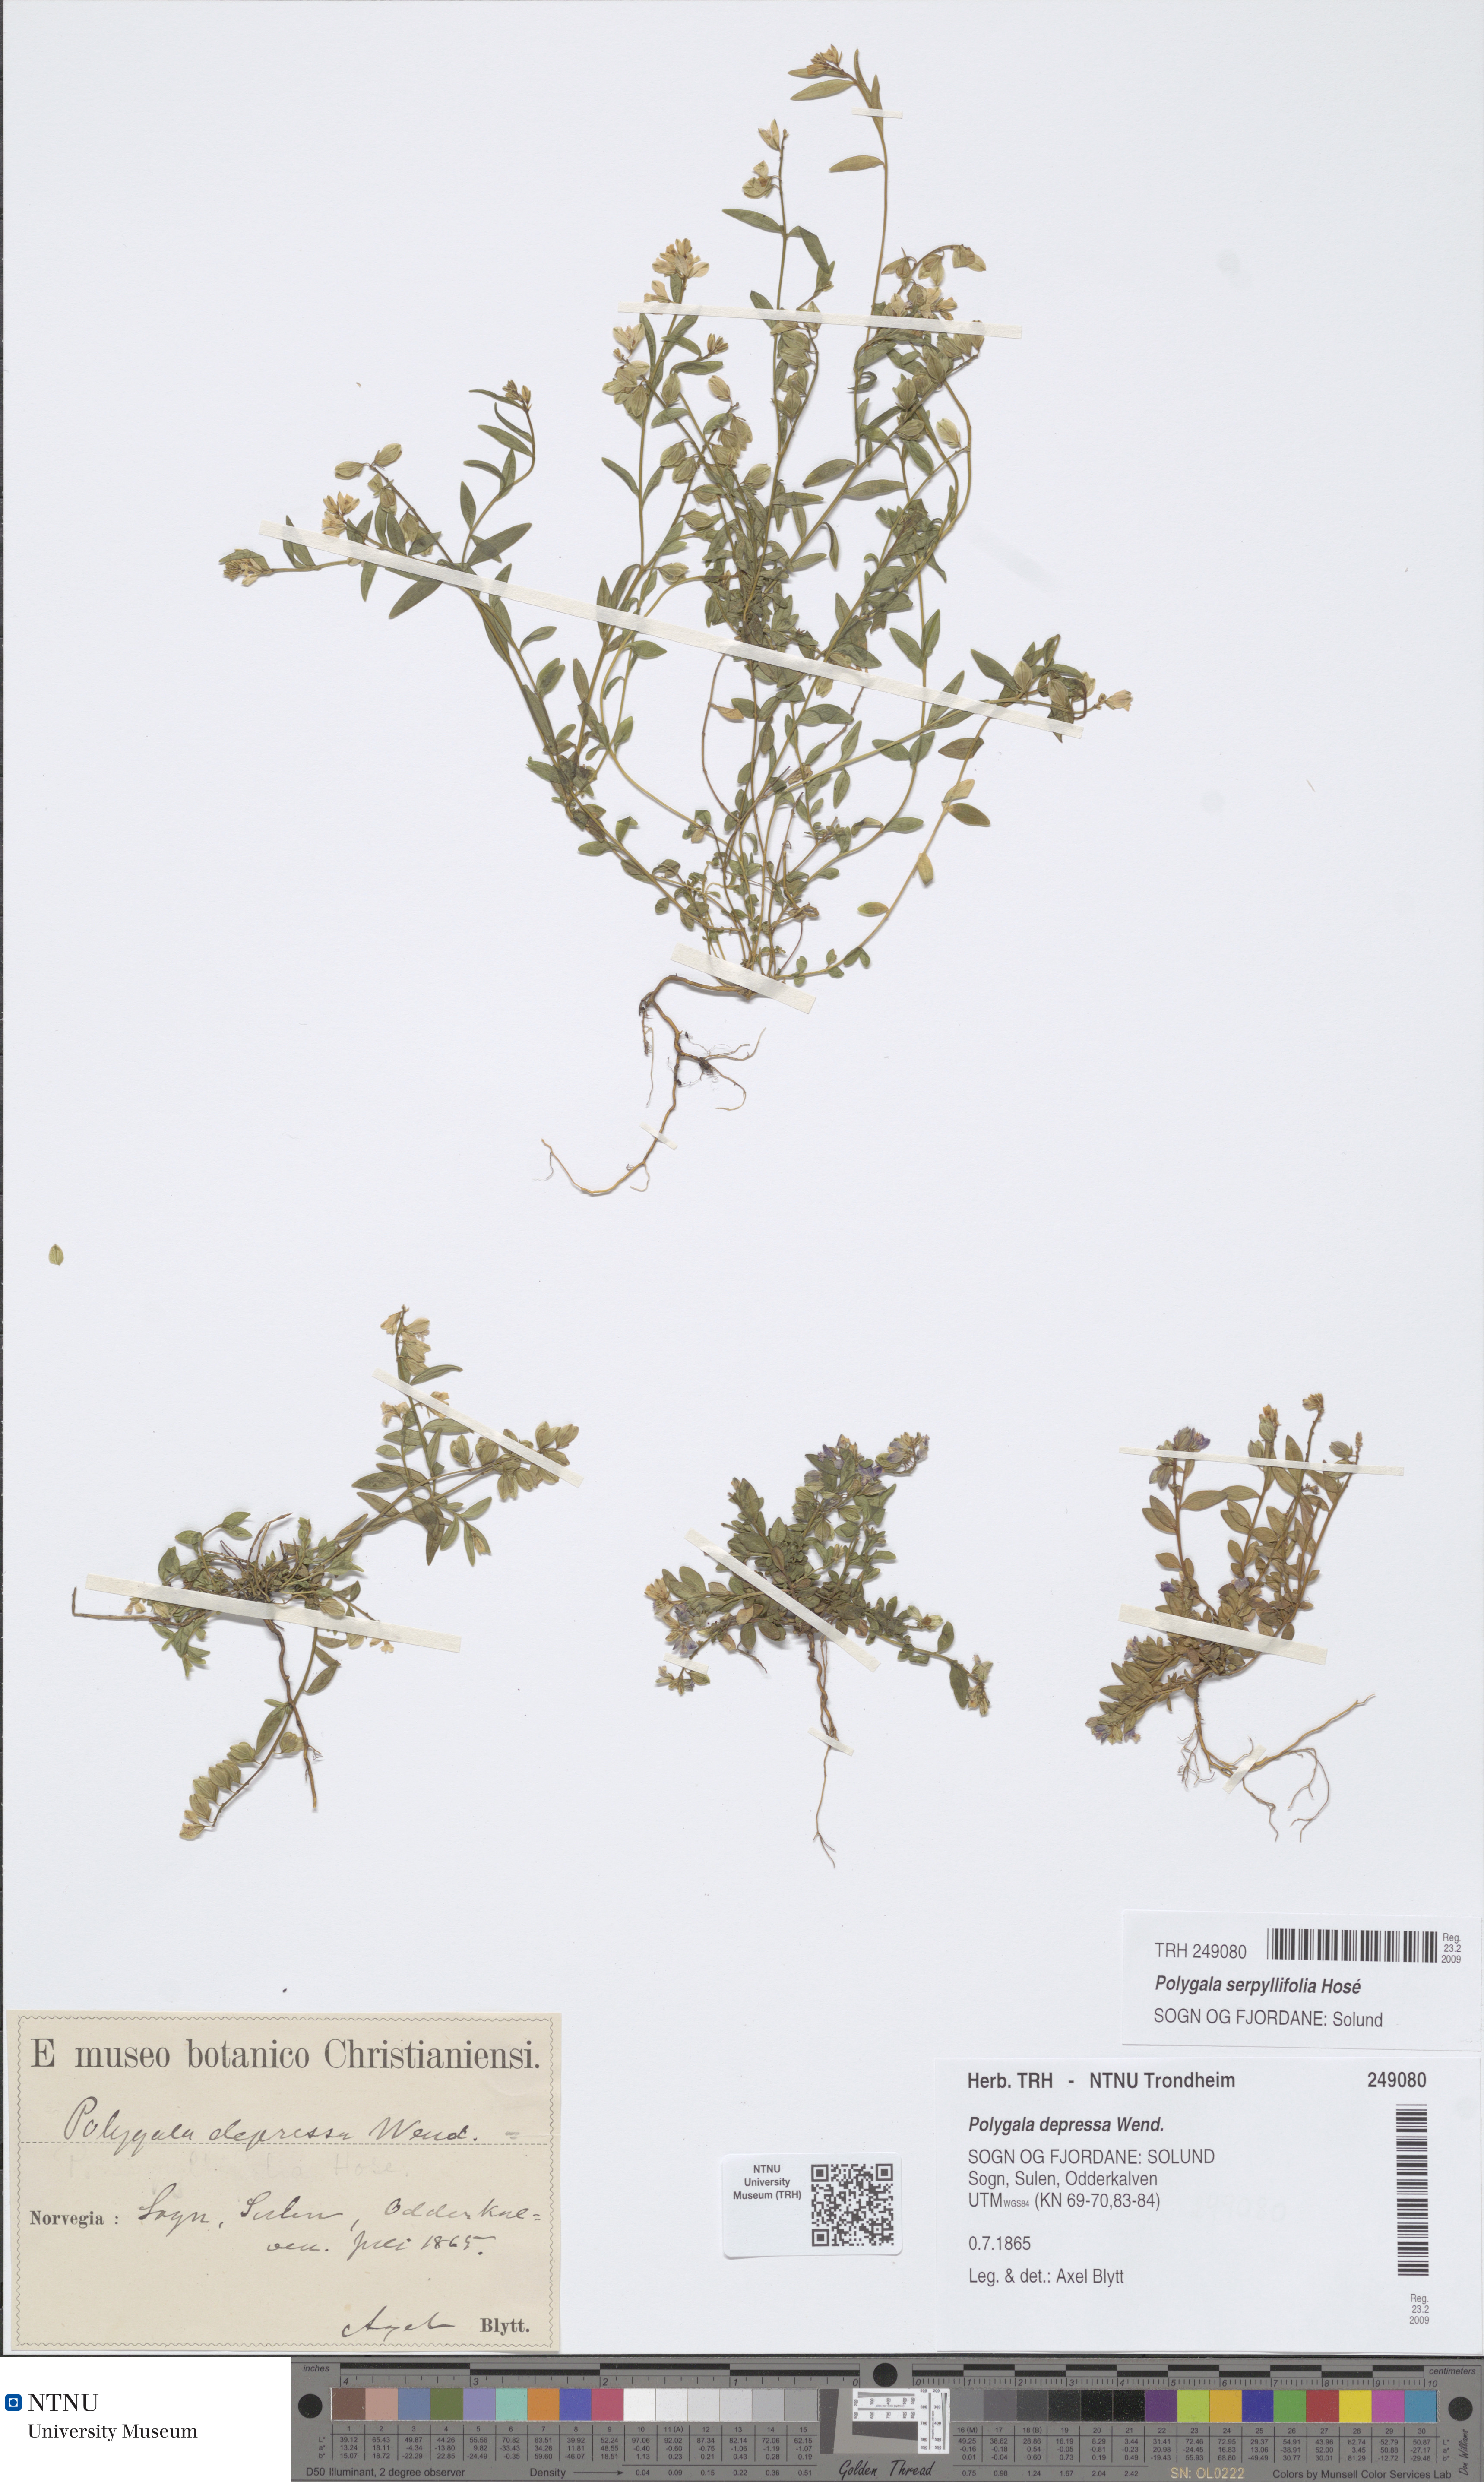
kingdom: Plantae
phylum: Tracheophyta
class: Magnoliopsida
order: Fabales
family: Polygalaceae
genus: Polygala
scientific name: Polygala serpyllifolia
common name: Heath milkwort
